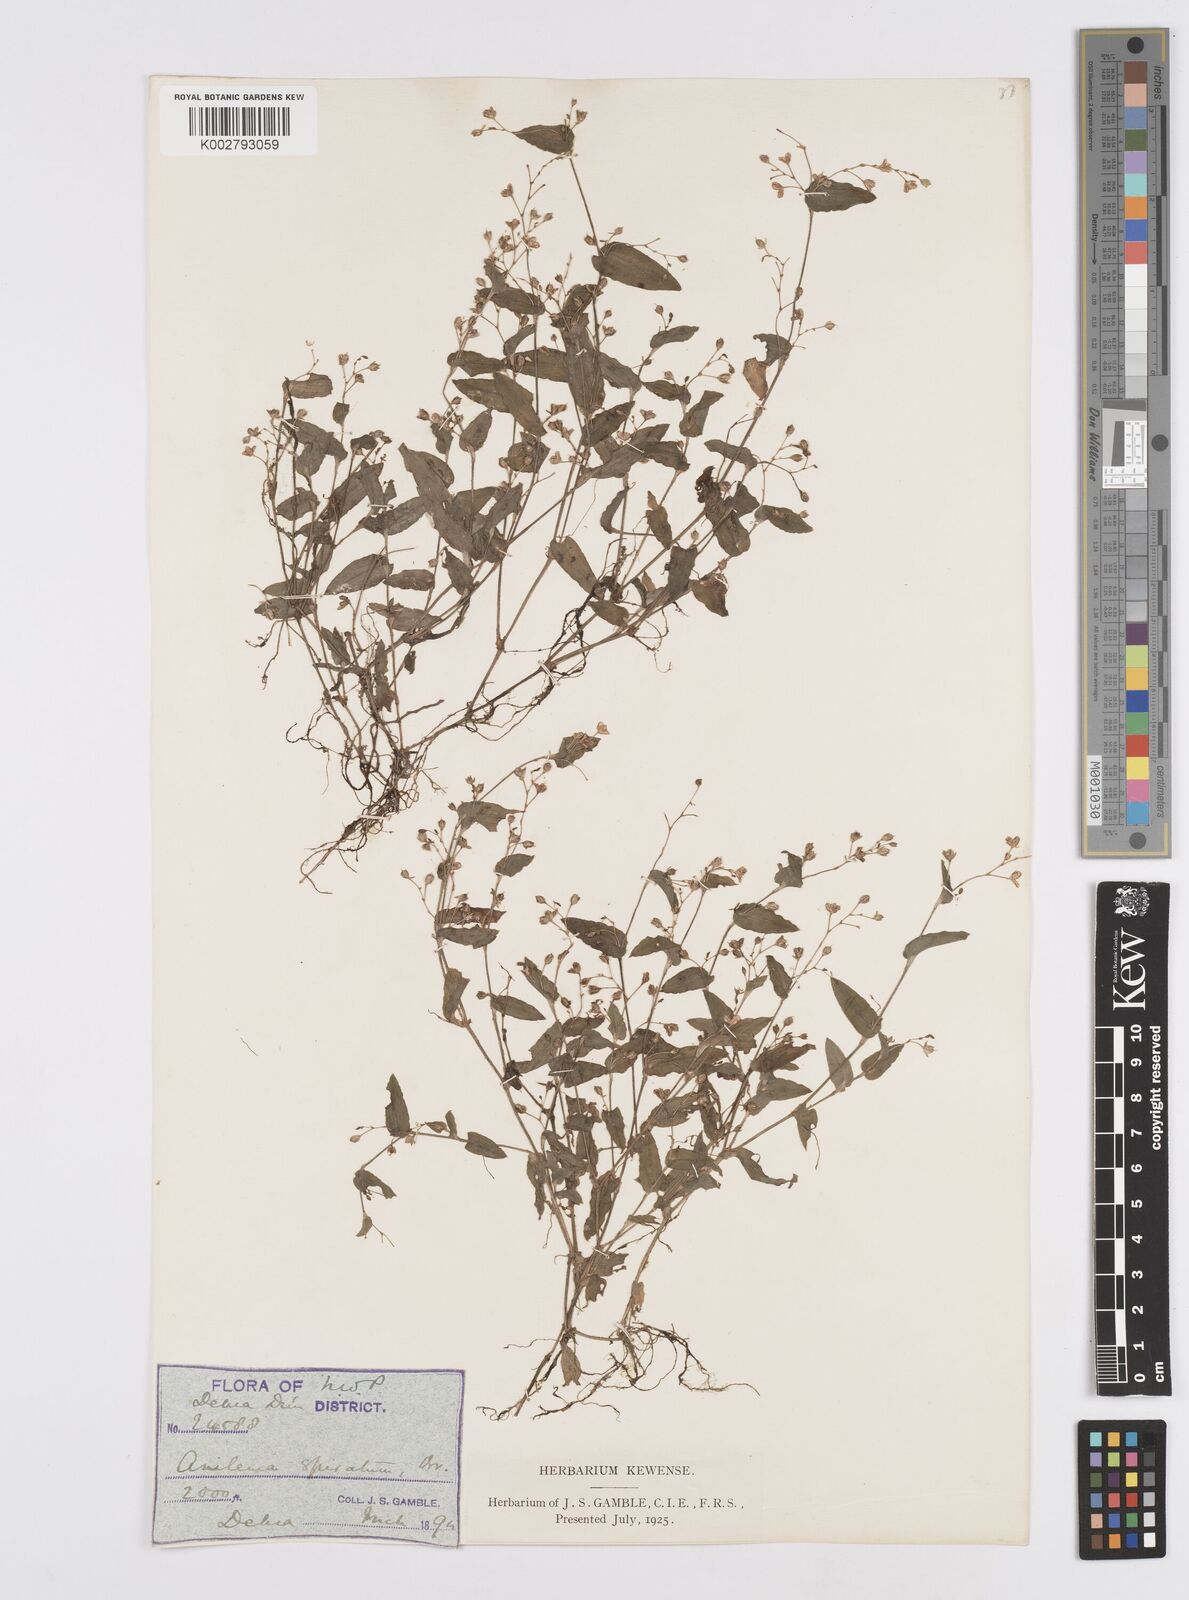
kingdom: Plantae
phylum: Tracheophyta
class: Liliopsida
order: Commelinales
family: Commelinaceae
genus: Murdannia
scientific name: Murdannia spirata
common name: Asiatic dewflower
